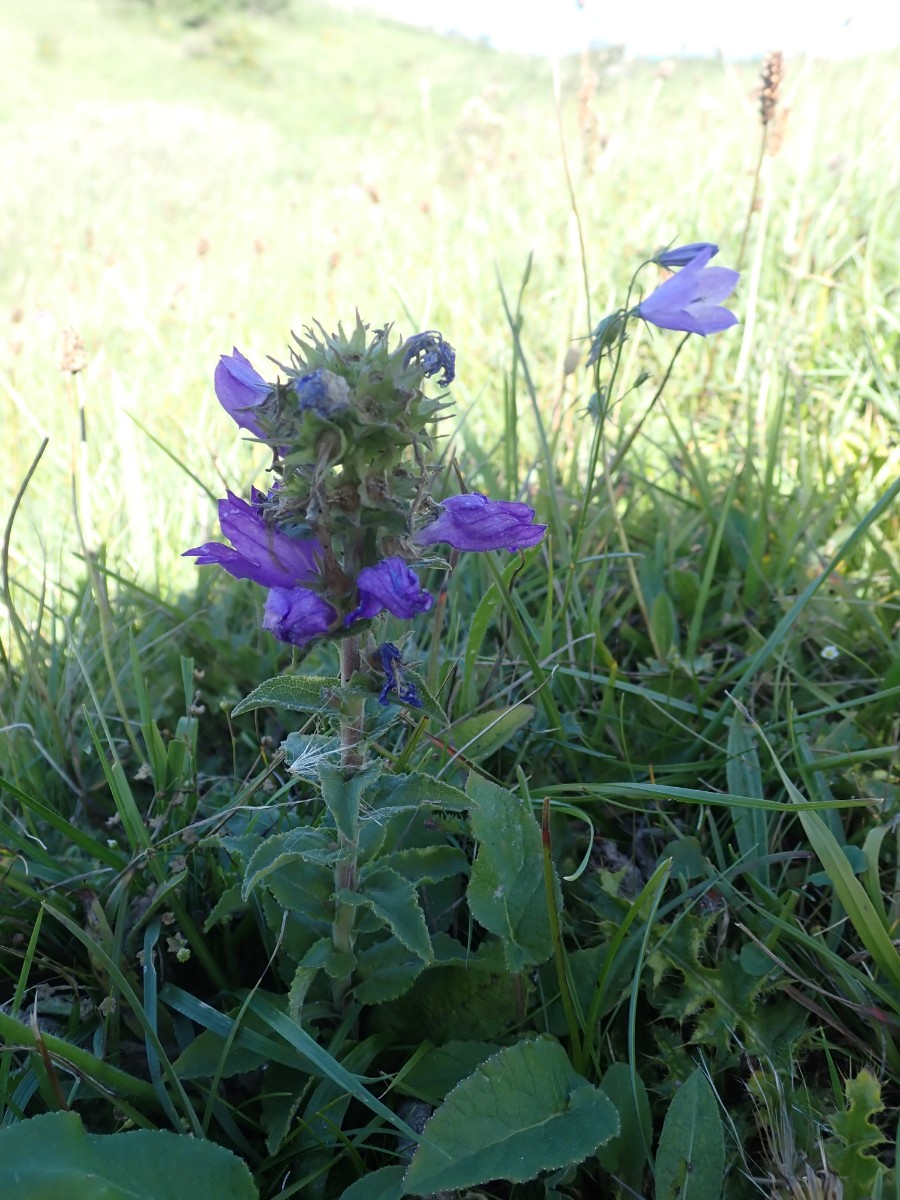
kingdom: Fungi
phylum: Basidiomycota
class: Pucciniomycetes
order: Pucciniales
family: Coleosporiaceae
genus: Coleosporium
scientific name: Coleosporium campanulae
